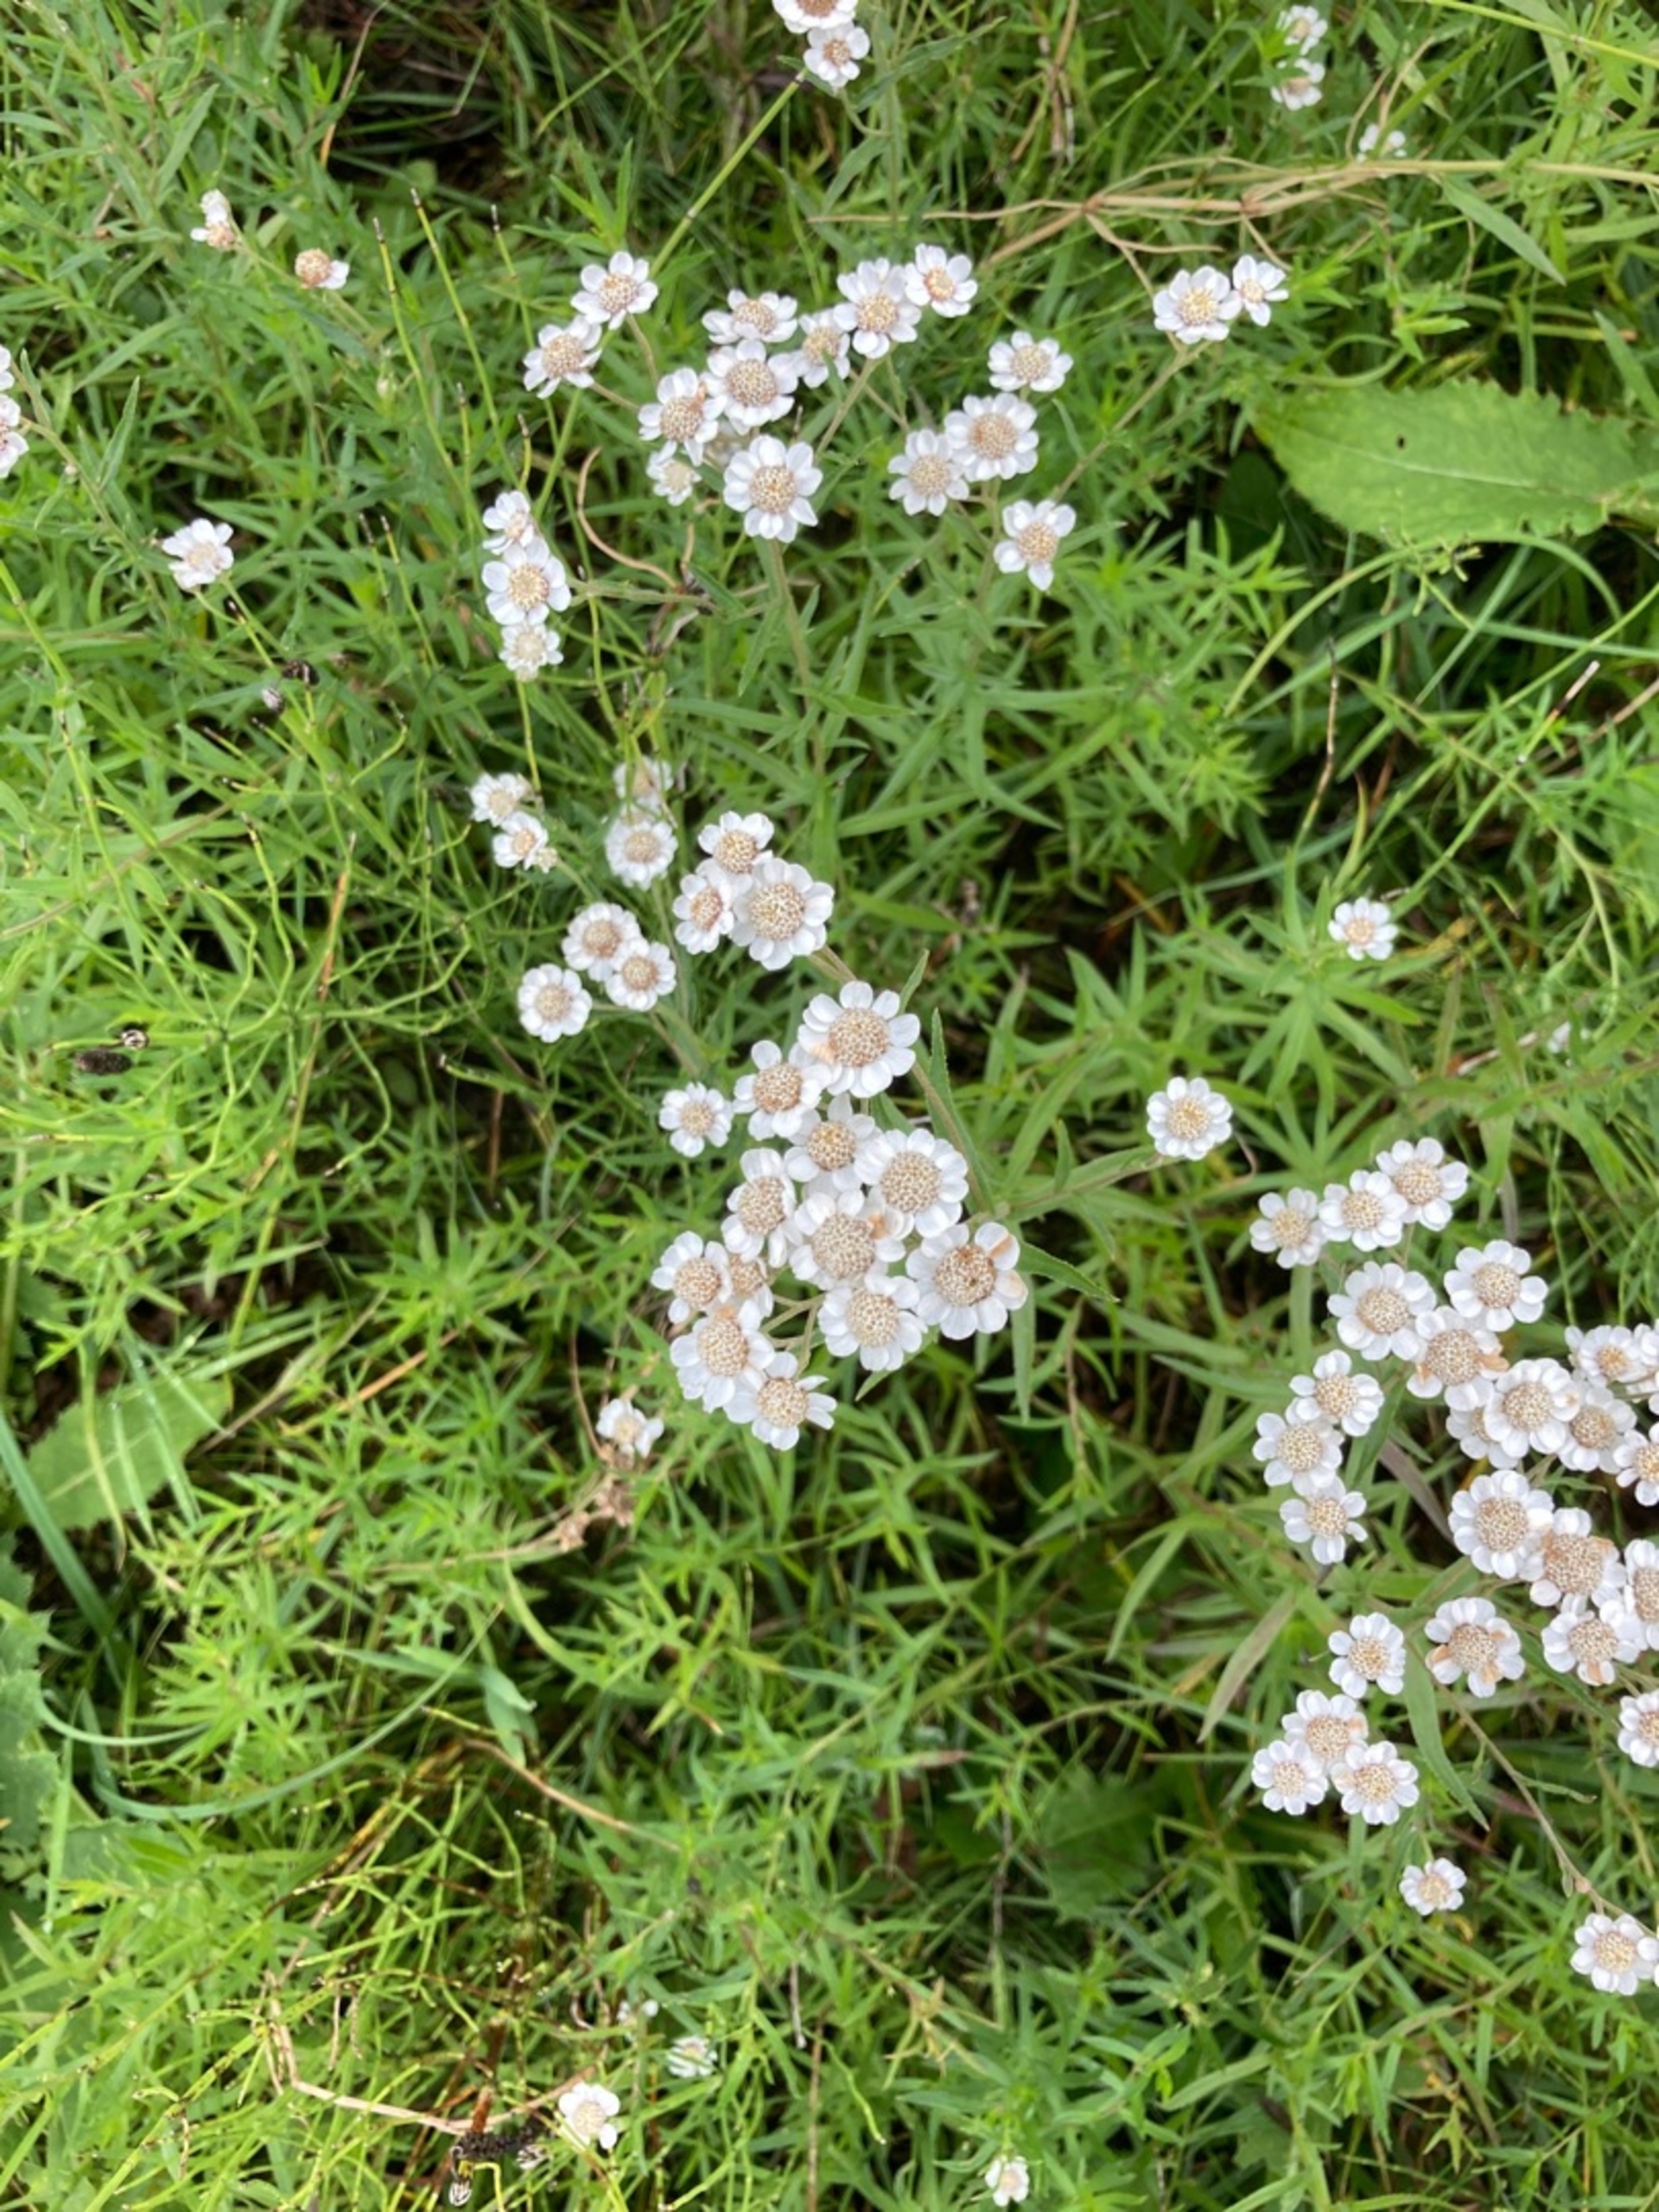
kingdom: Plantae
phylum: Tracheophyta
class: Magnoliopsida
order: Asterales
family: Asteraceae
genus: Achillea
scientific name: Achillea ptarmica
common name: Nyse-røllike
